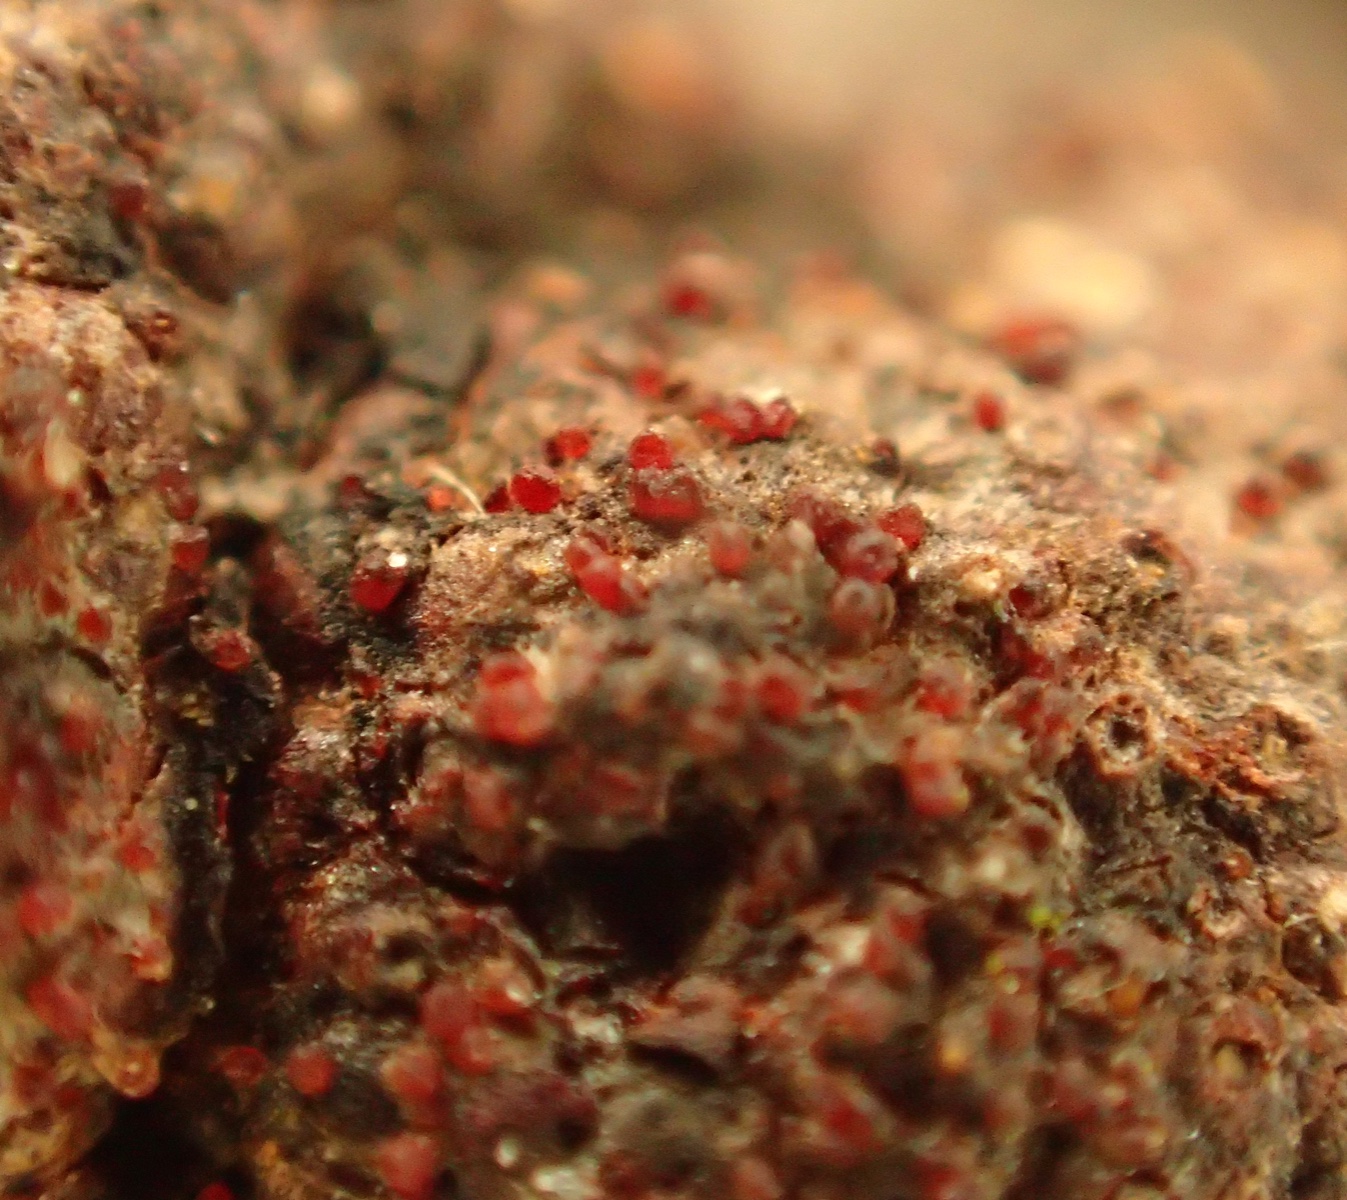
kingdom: Fungi
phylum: Ascomycota
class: Sordariomycetes
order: Hypocreales
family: Nectriaceae
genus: Cosmospora
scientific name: Cosmospora arxii
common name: kuljordbær-cinnobersvamp
